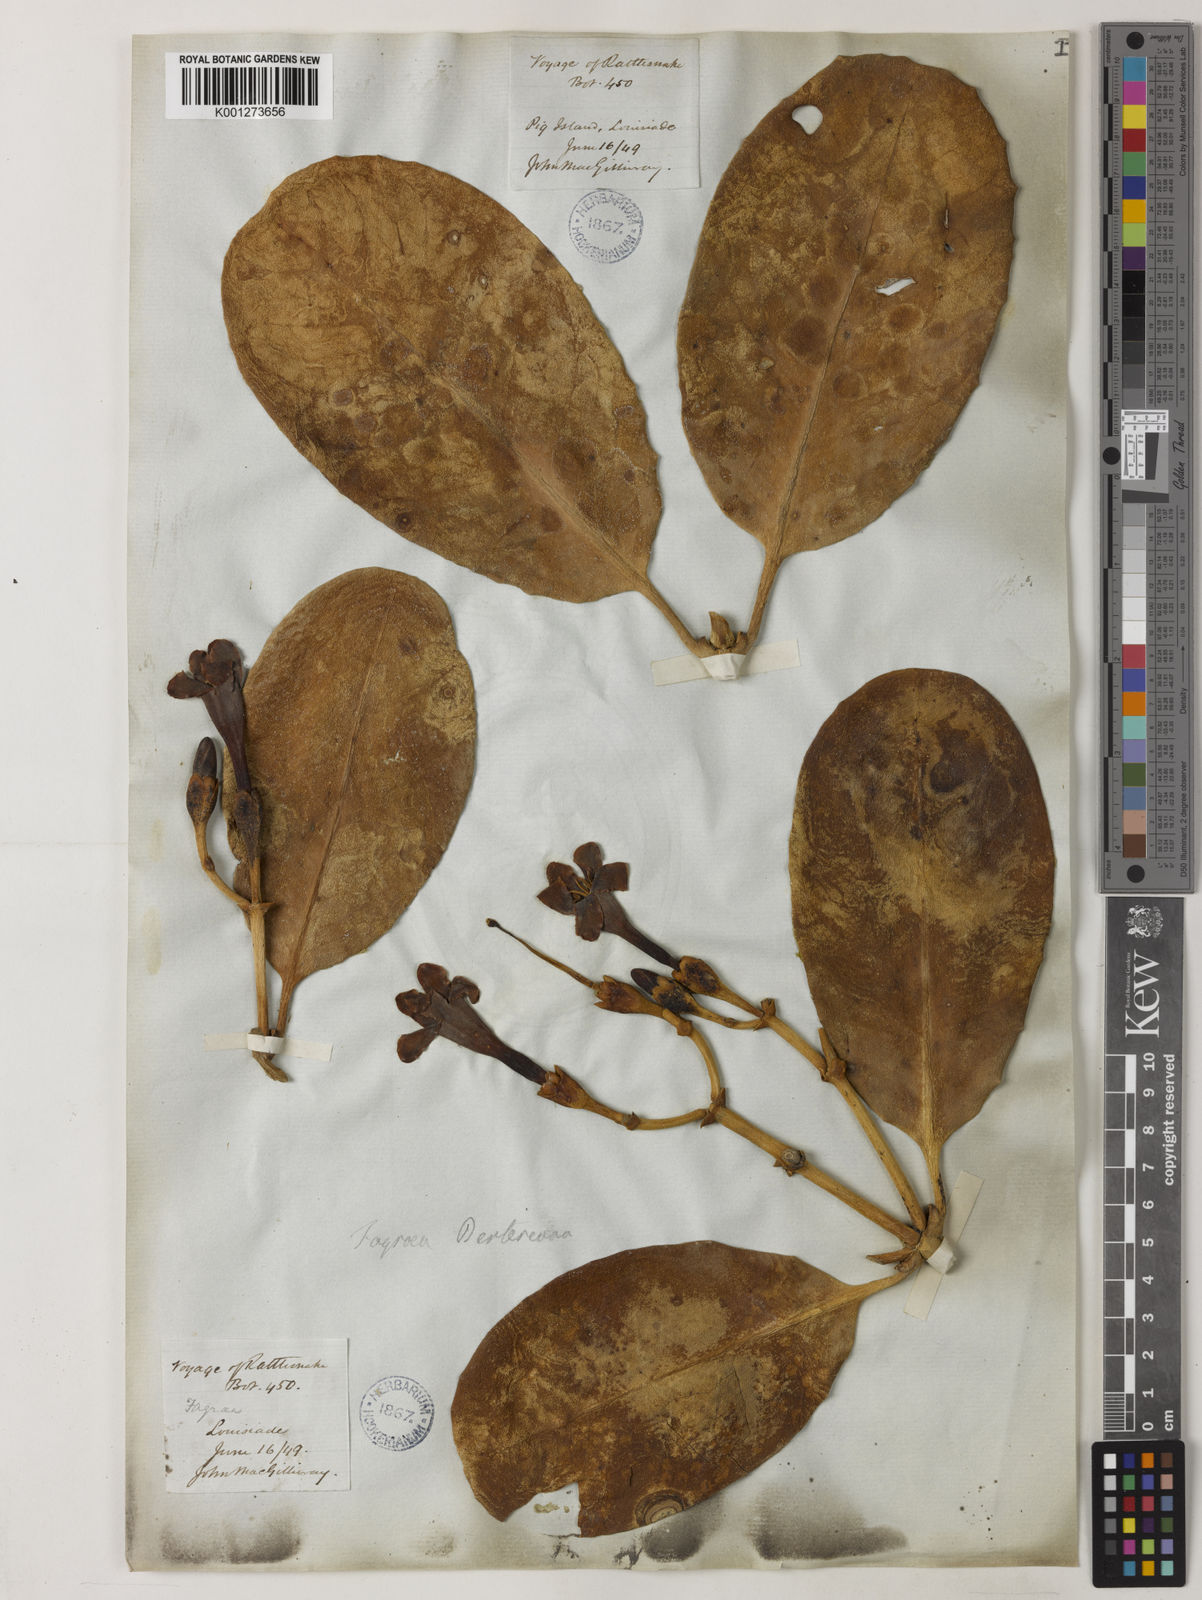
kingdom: Plantae
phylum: Tracheophyta
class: Magnoliopsida
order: Gentianales
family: Gentianaceae
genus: Fagraea
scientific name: Fagraea berteroana
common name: Cape jitta
